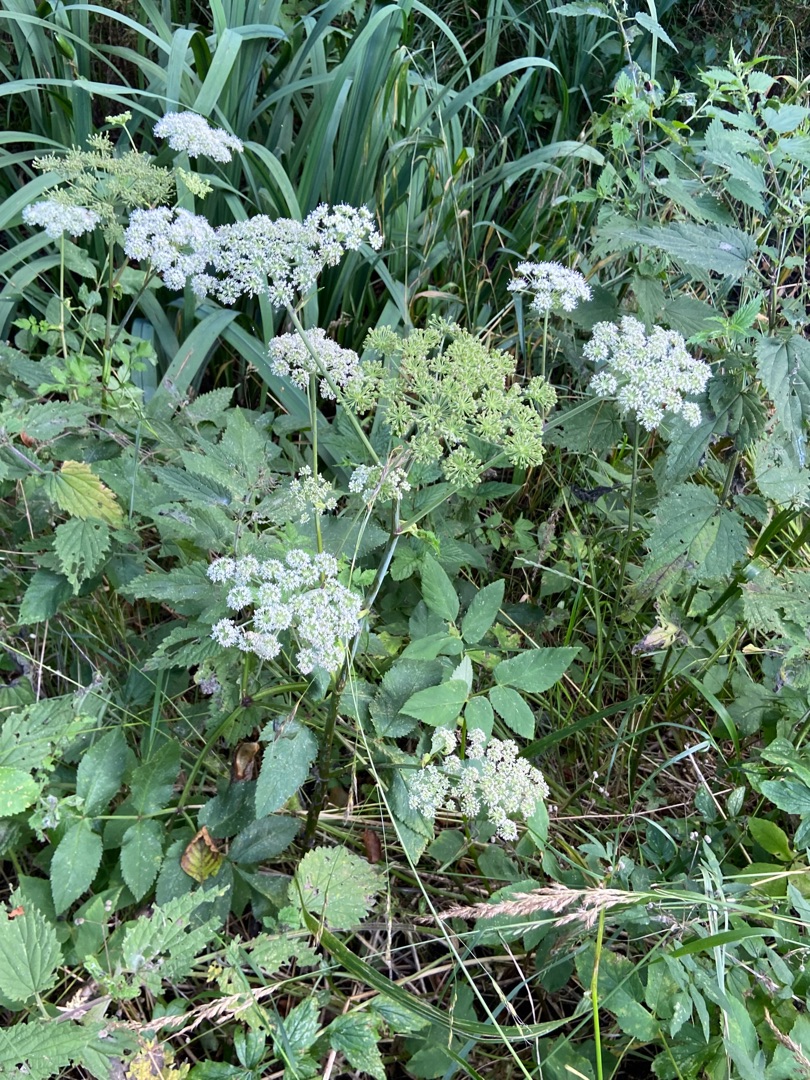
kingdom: Plantae
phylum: Tracheophyta
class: Magnoliopsida
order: Apiales
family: Apiaceae
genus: Angelica
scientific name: Angelica sylvestris
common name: Angelik
